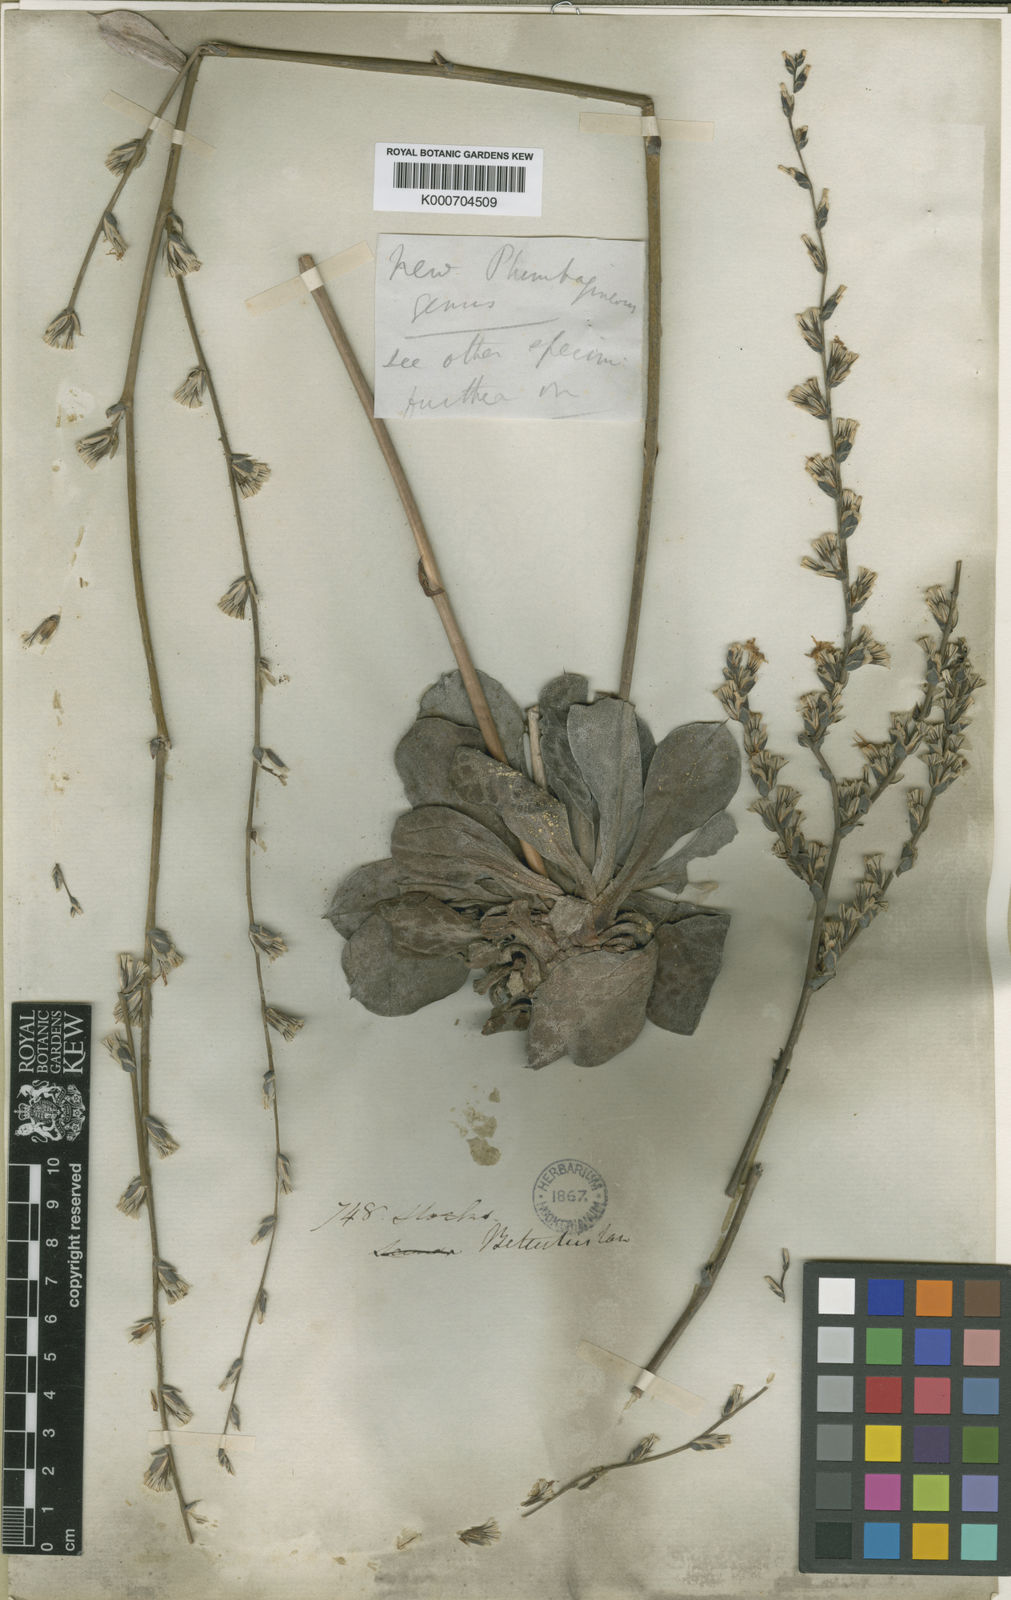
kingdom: Plantae
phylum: Tracheophyta
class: Magnoliopsida
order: Caryophyllales
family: Plumbaginaceae
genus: Dictyolimon
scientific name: Dictyolimon macrorrhabdos
